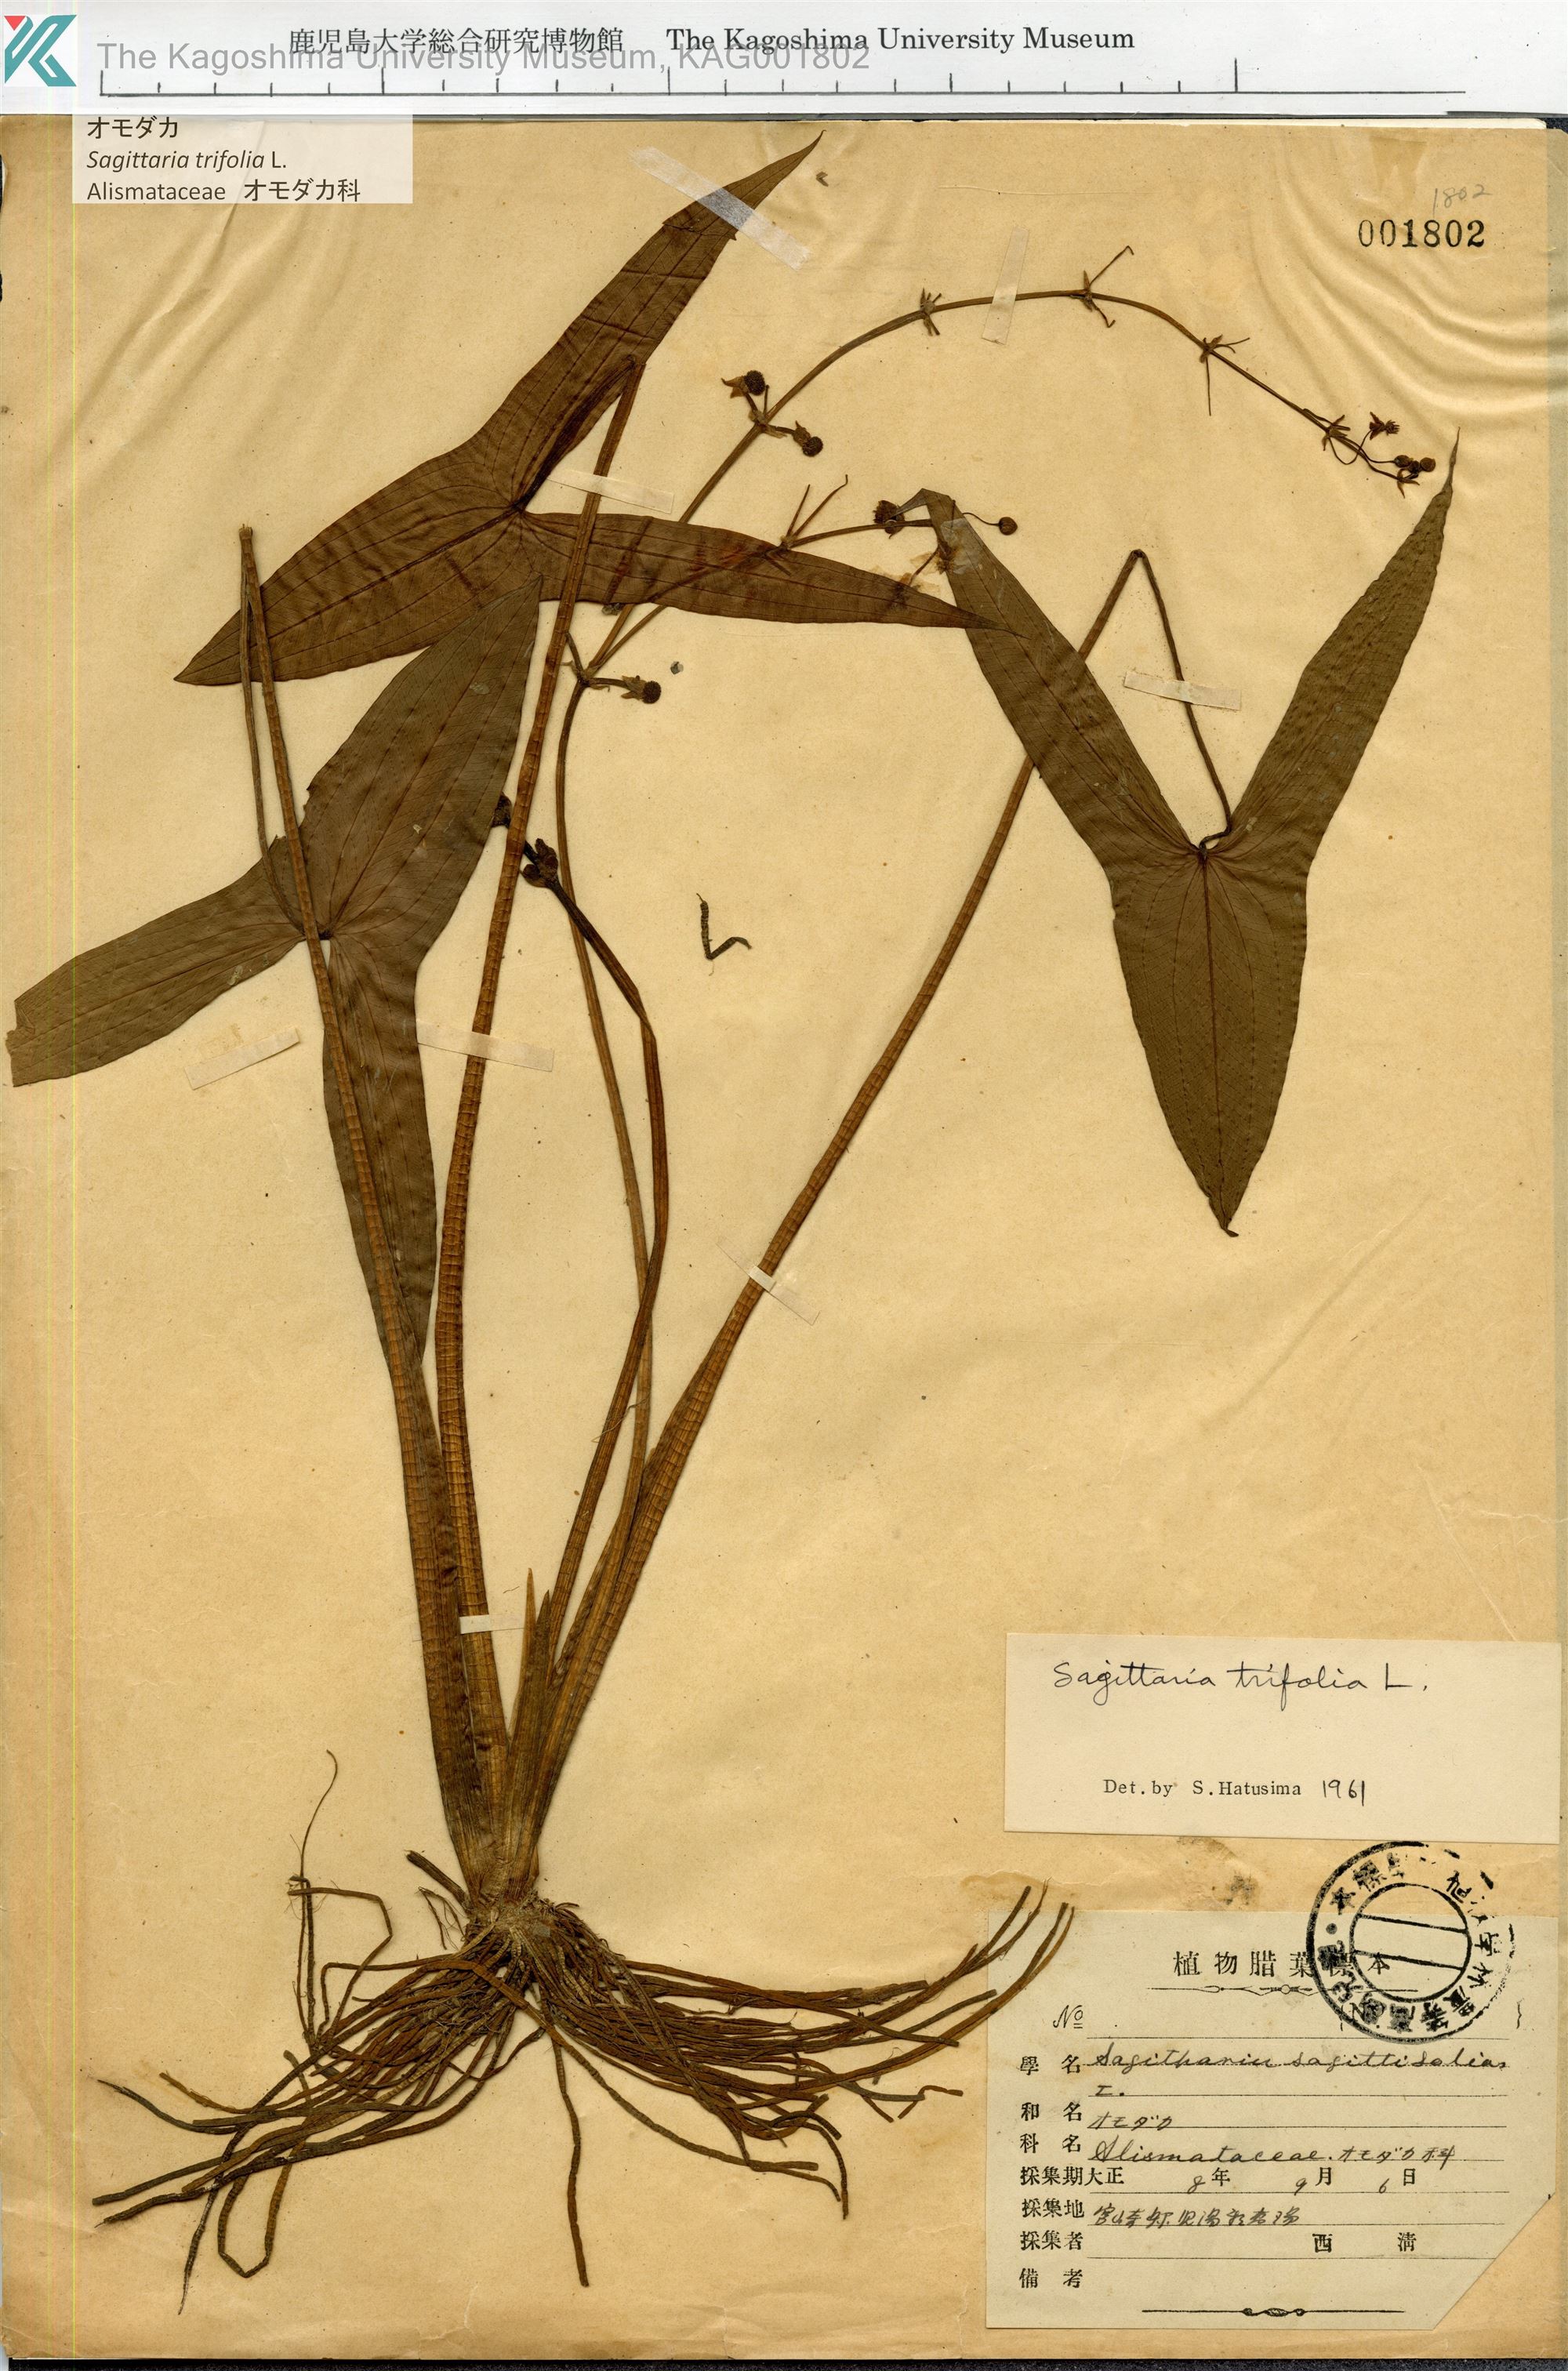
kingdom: Plantae
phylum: Tracheophyta
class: Liliopsida
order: Alismatales
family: Alismataceae
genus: Sagittaria
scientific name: Sagittaria trifolia
